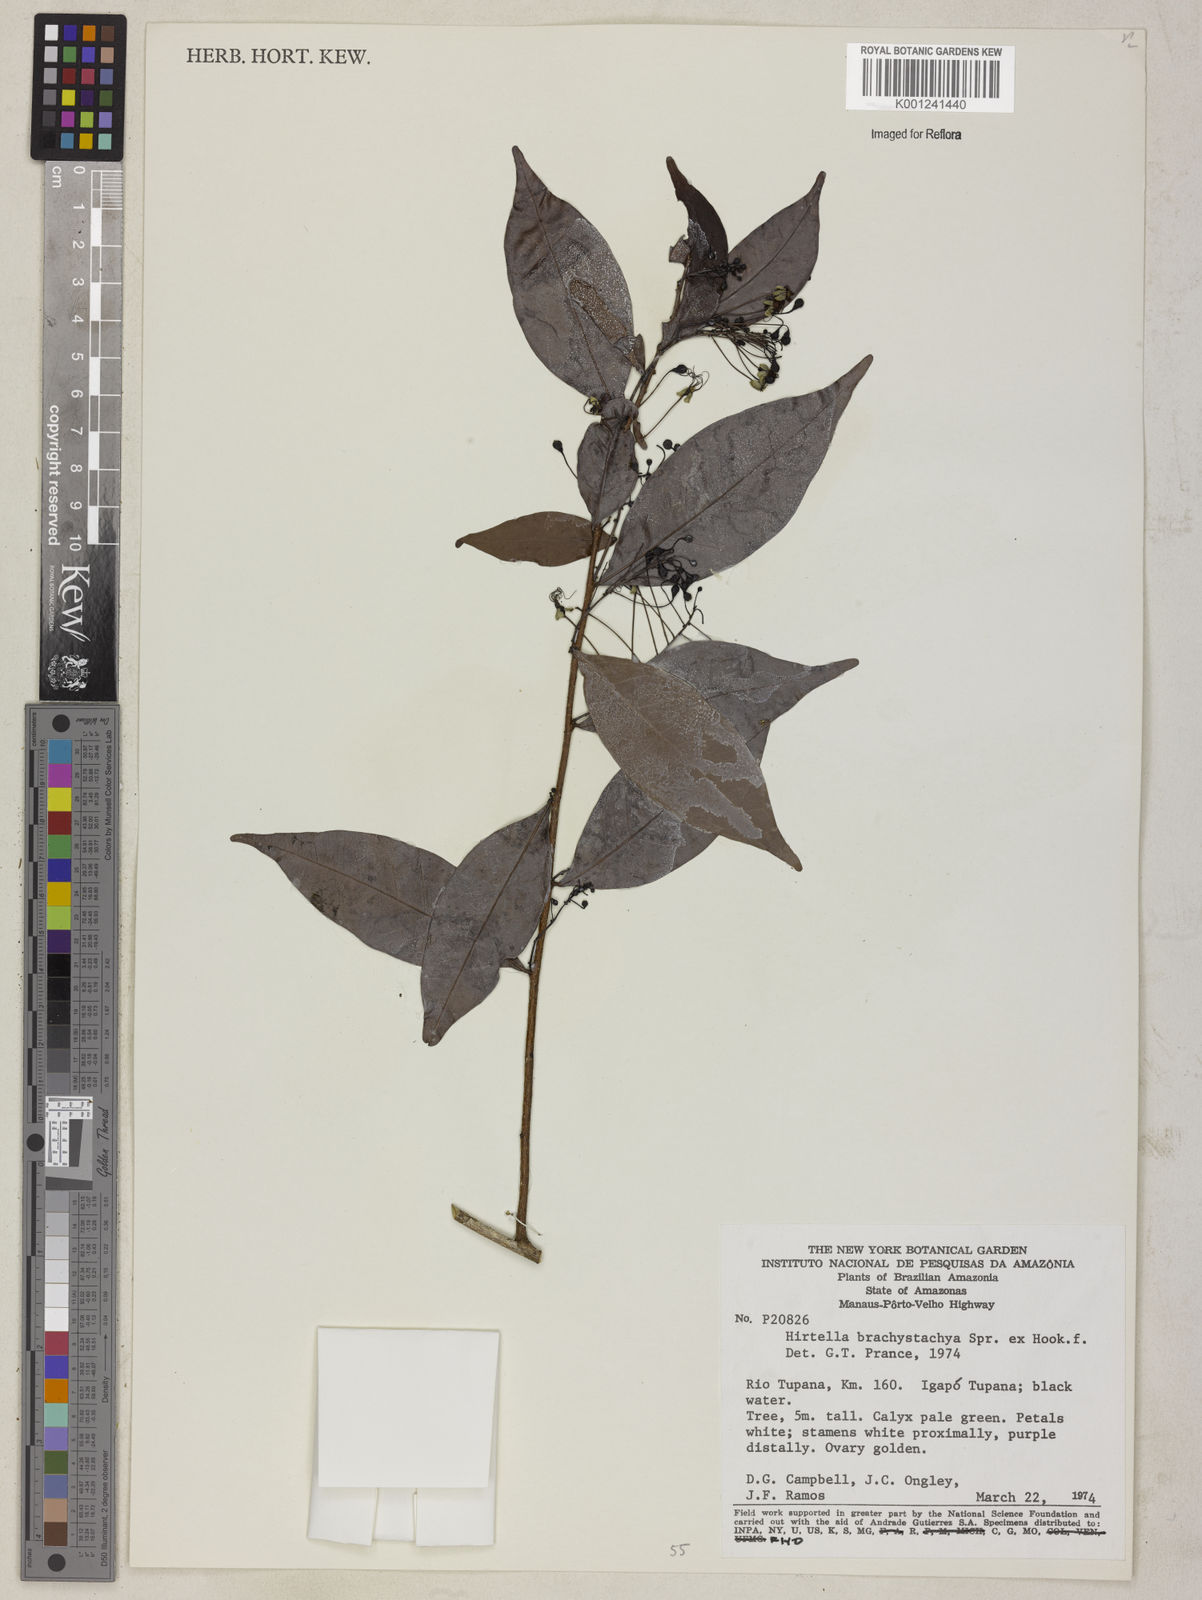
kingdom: Plantae
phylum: Tracheophyta
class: Magnoliopsida
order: Malpighiales
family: Chrysobalanaceae
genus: Hirtella
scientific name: Hirtella brachystachya
